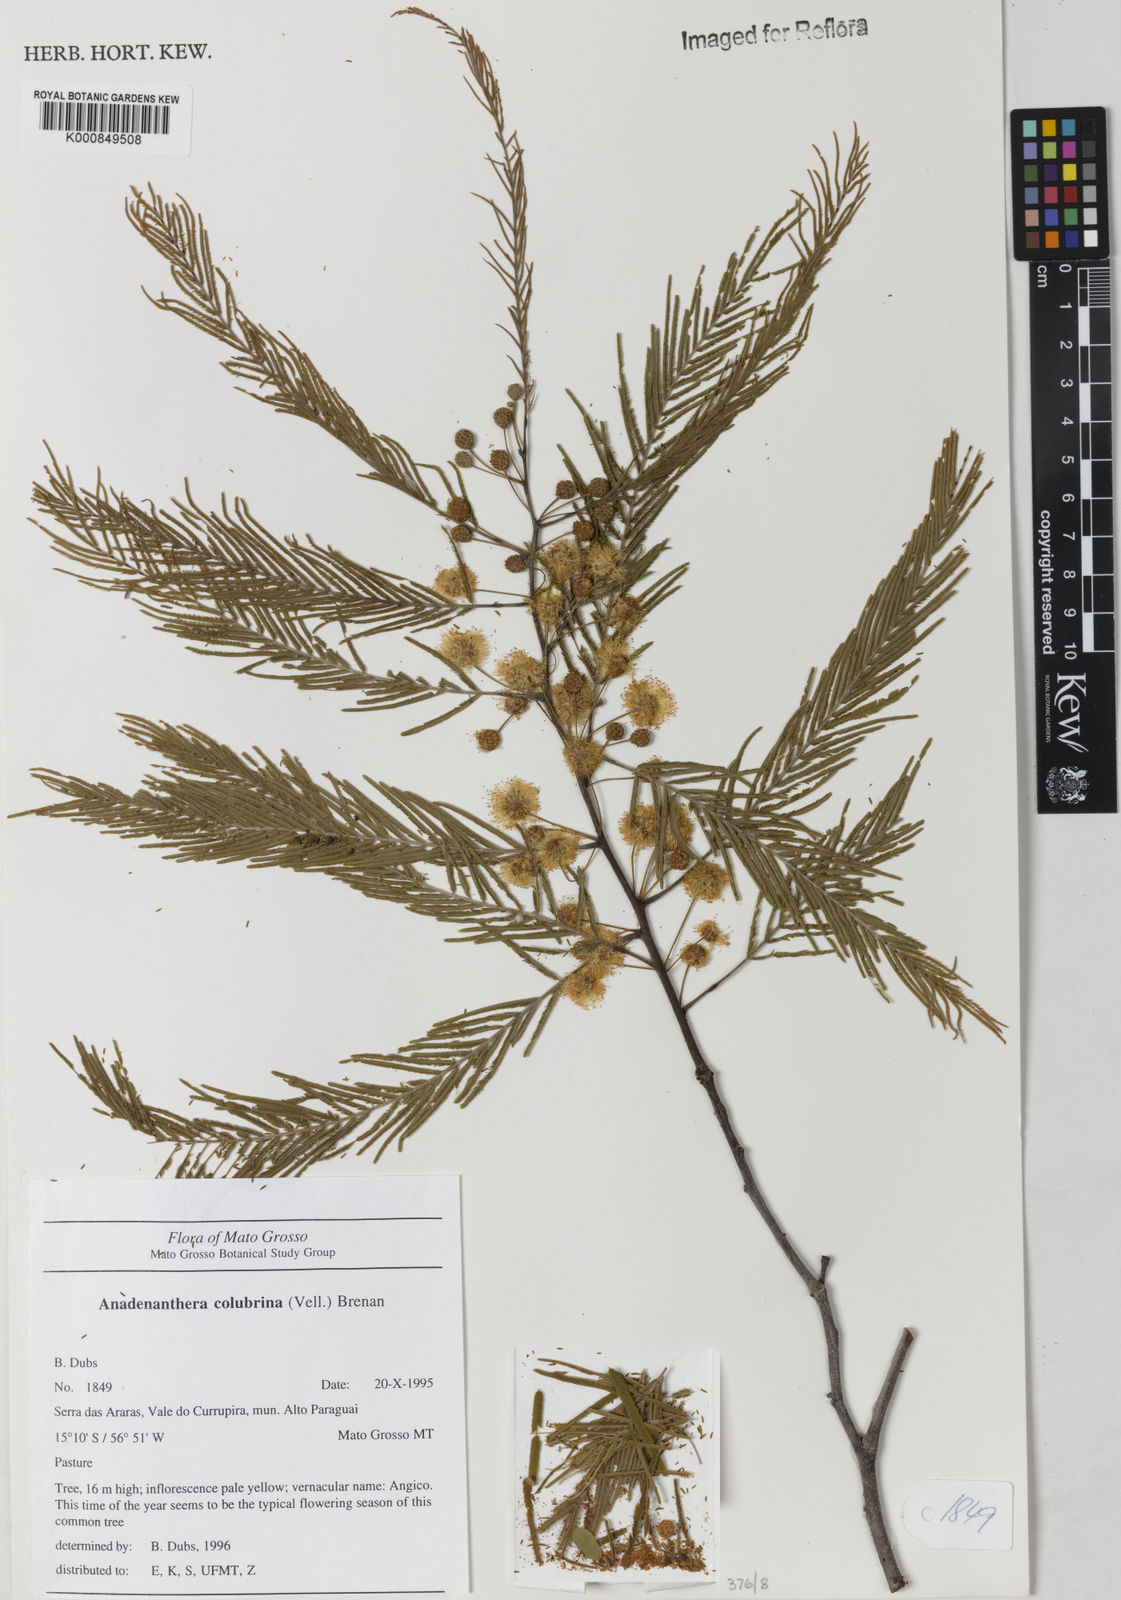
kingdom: Plantae
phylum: Tracheophyta
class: Magnoliopsida
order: Fabales
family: Fabaceae
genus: Anadenanthera
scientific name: Anadenanthera colubrina
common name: Curupay
